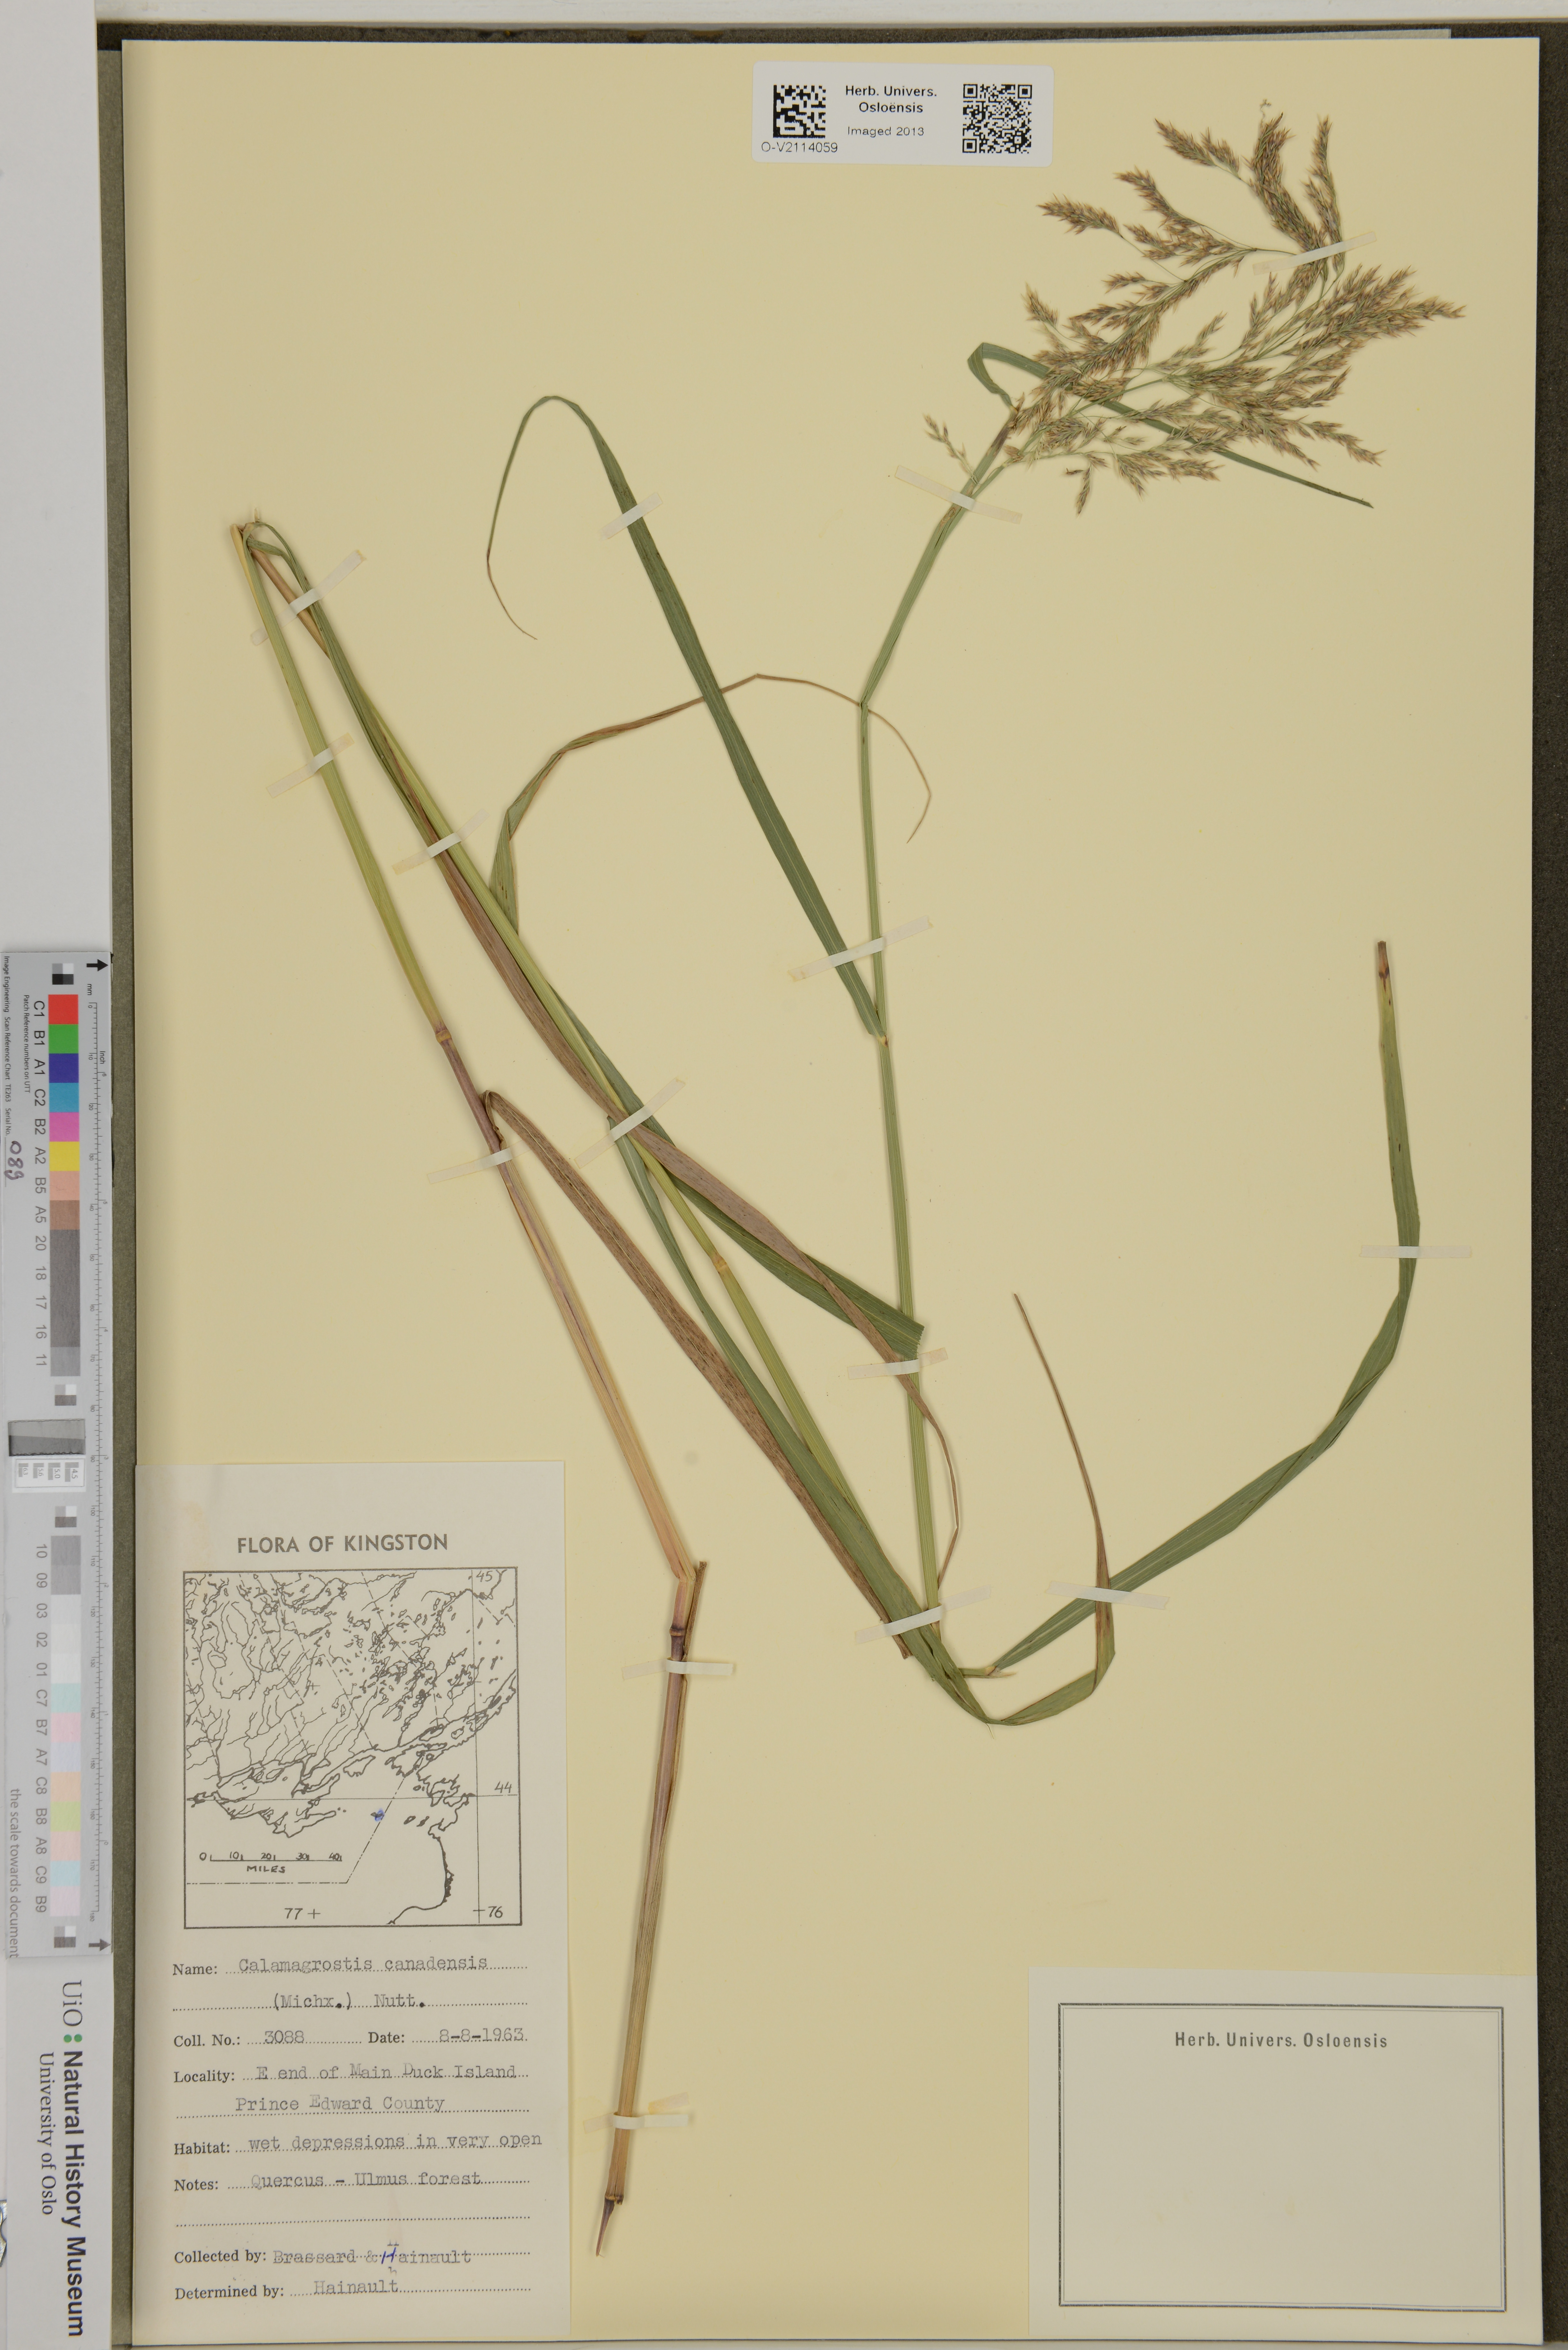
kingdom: Plantae
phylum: Tracheophyta
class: Liliopsida
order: Poales
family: Poaceae
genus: Calamagrostis
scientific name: Calamagrostis canadensis
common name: Canada bluejoint
